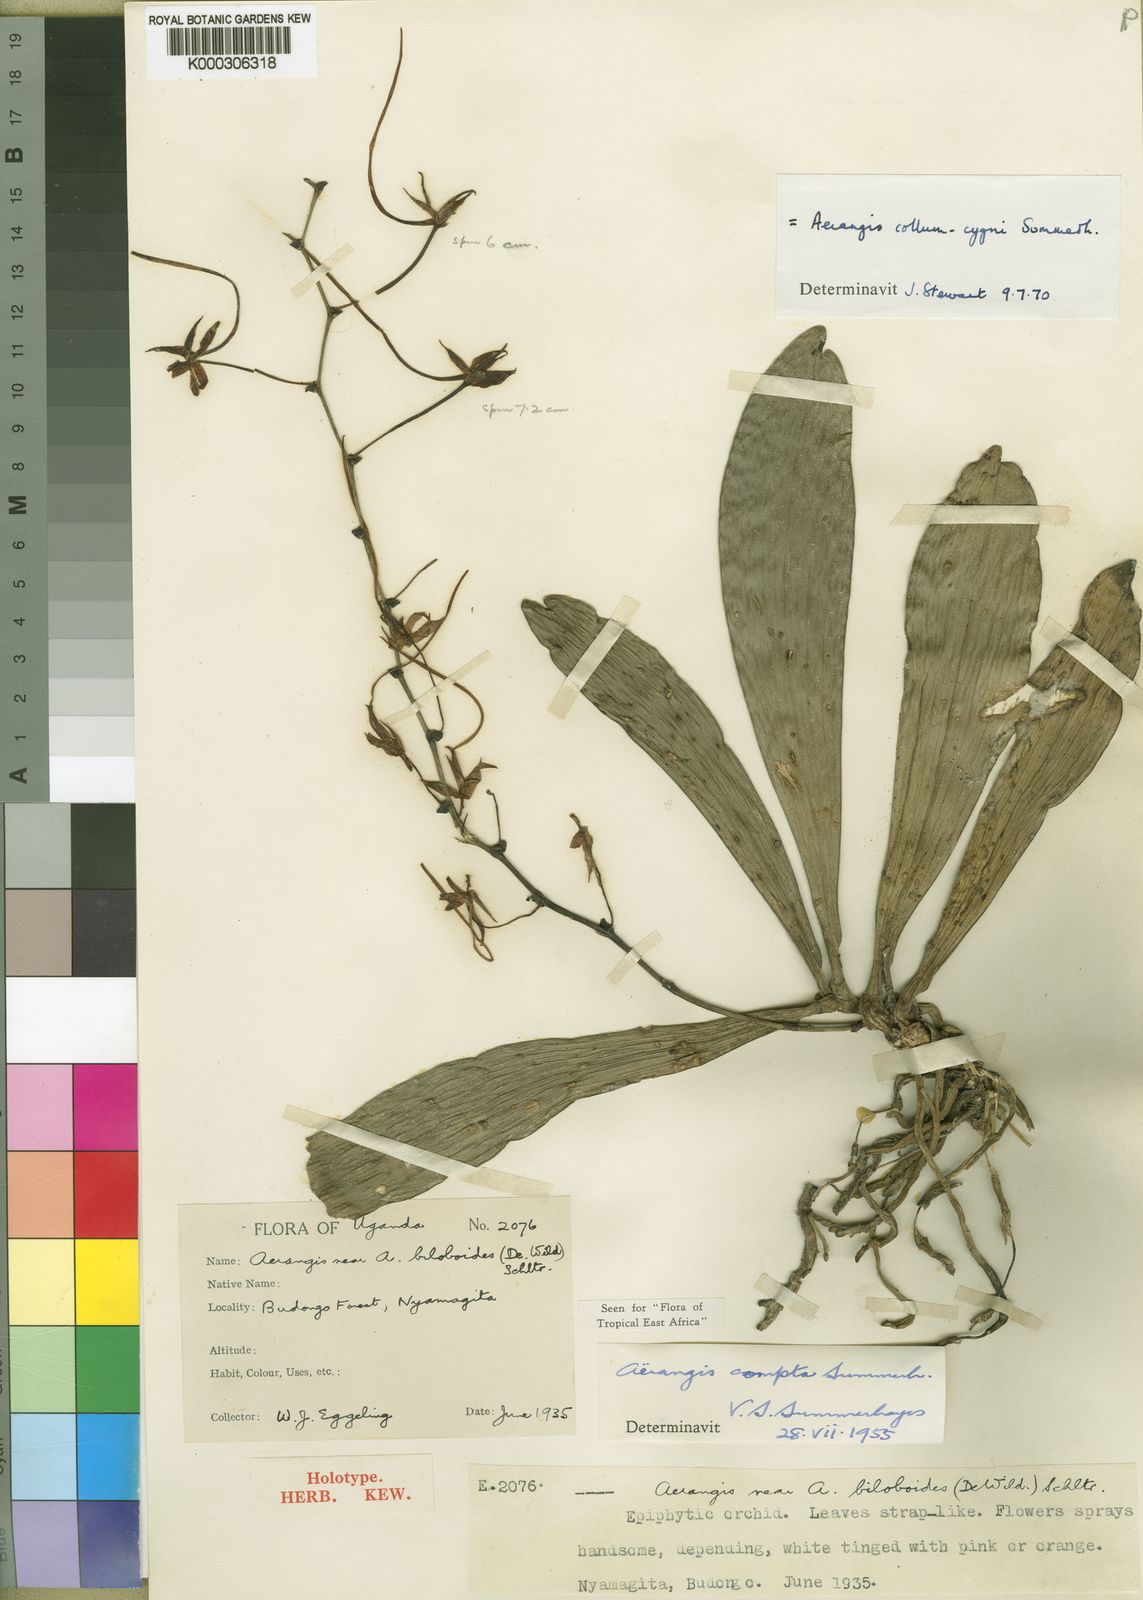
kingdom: Plantae
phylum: Tracheophyta
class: Liliopsida
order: Asparagales
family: Orchidaceae
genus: Aerangis
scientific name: Aerangis collum-cygni
